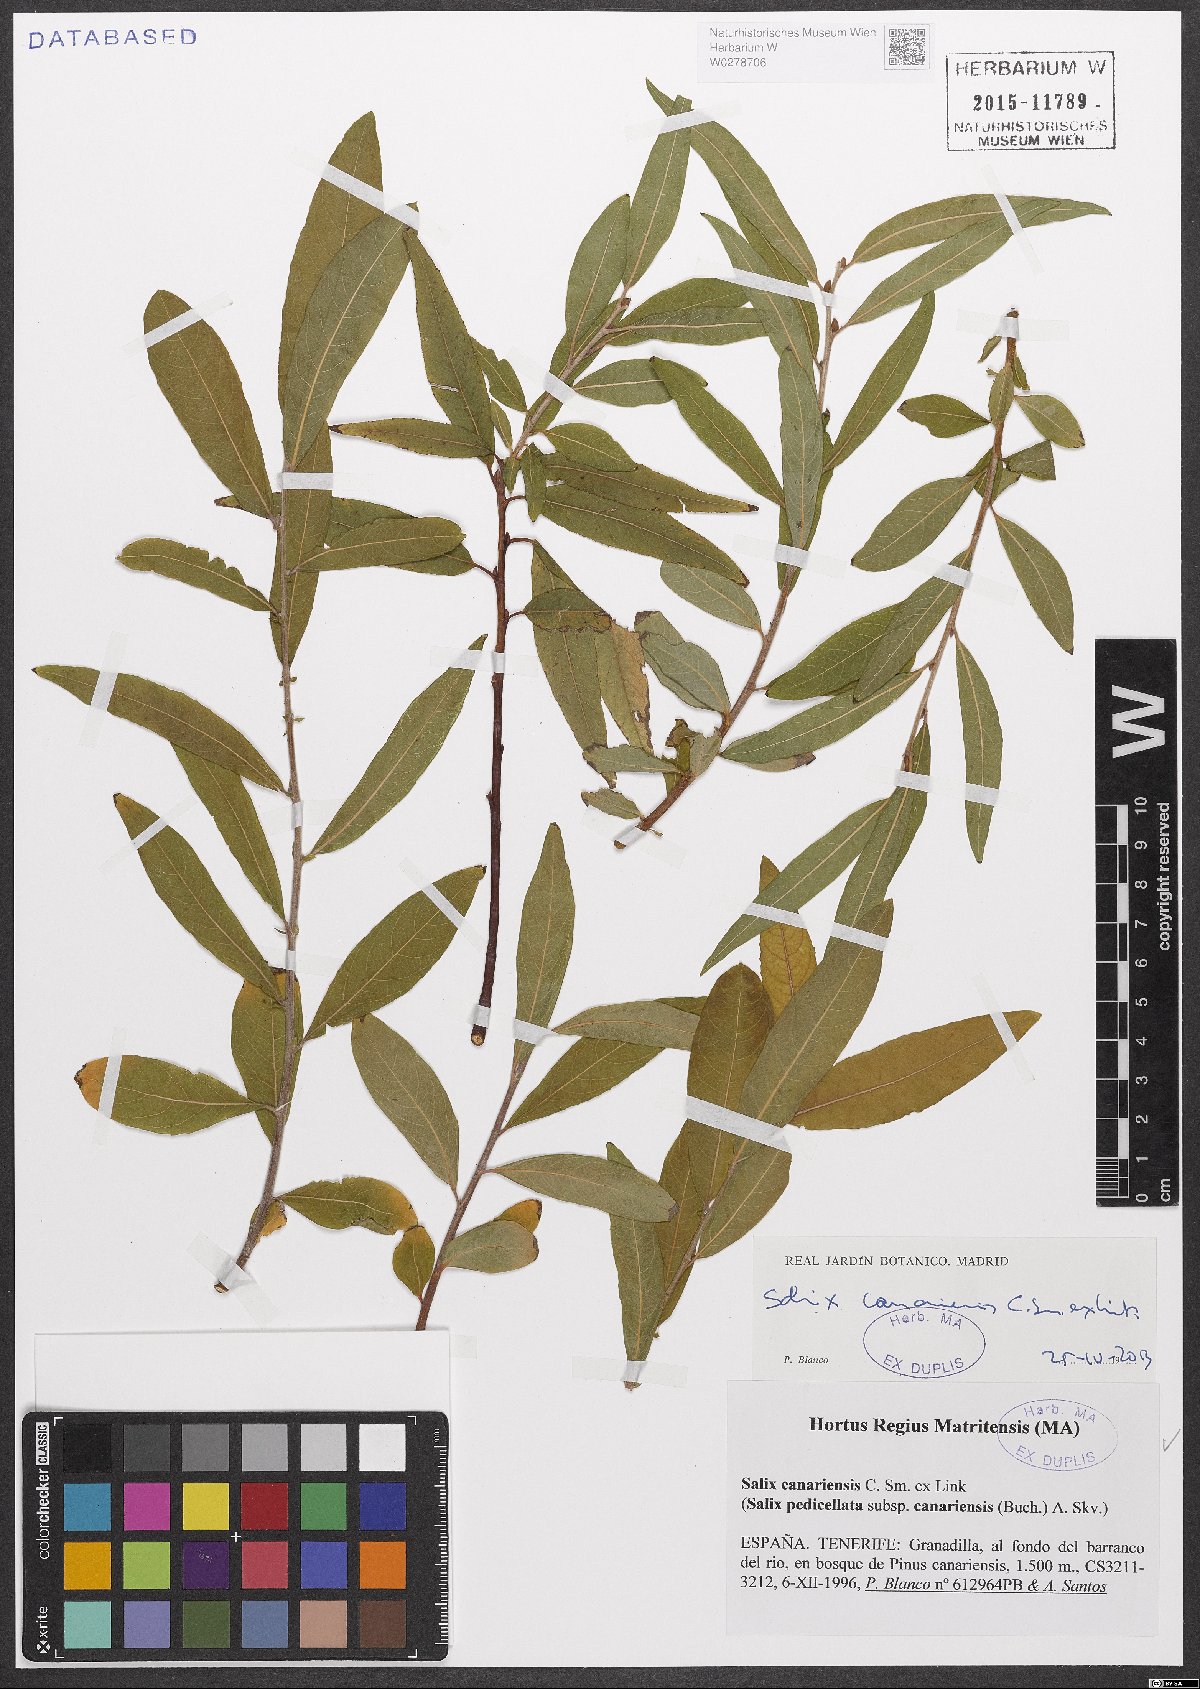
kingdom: Plantae
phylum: Tracheophyta
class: Magnoliopsida
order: Malpighiales
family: Salicaceae
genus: Salix
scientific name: Salix canariensis
